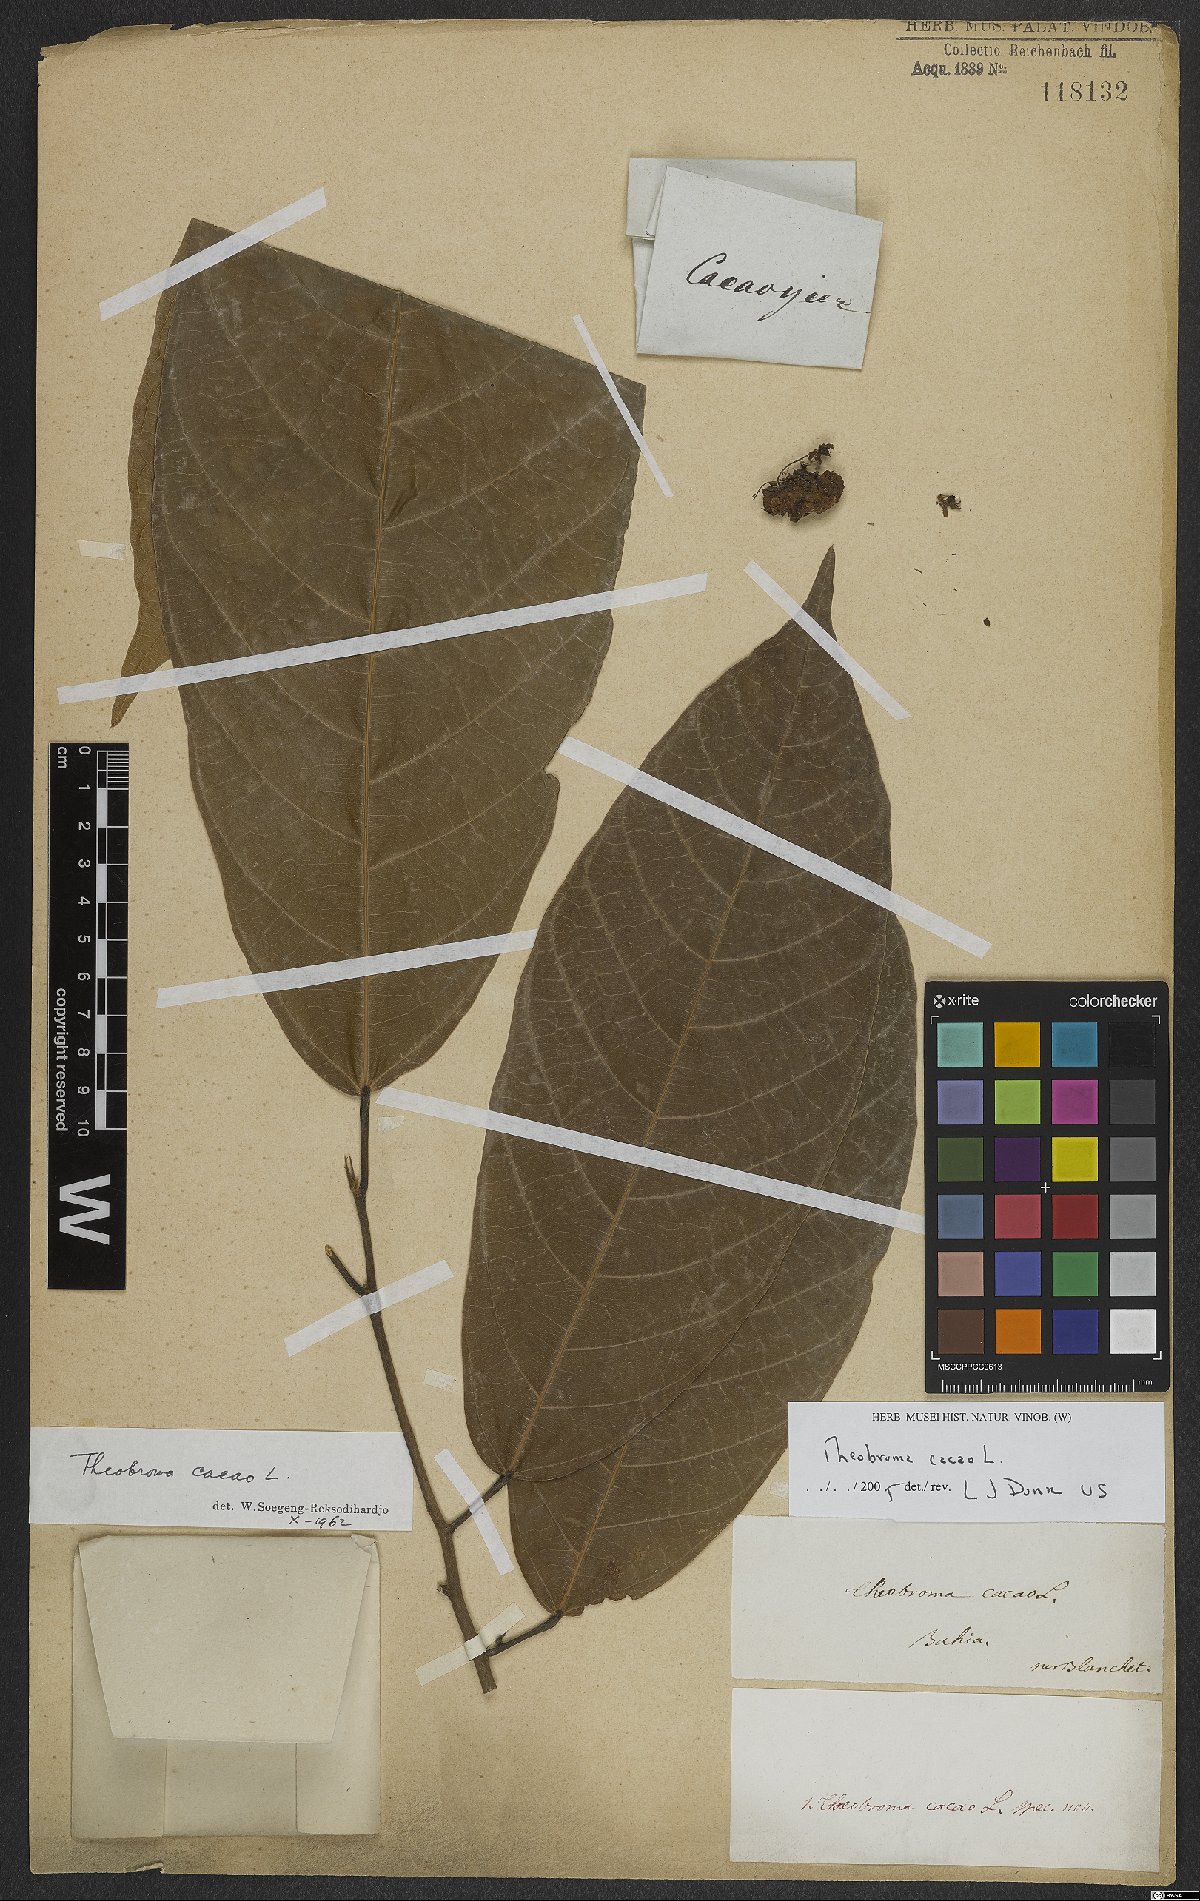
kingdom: Plantae
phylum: Tracheophyta
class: Magnoliopsida
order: Malvales
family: Malvaceae
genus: Theobroma
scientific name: Theobroma cacao
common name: Cocoa
